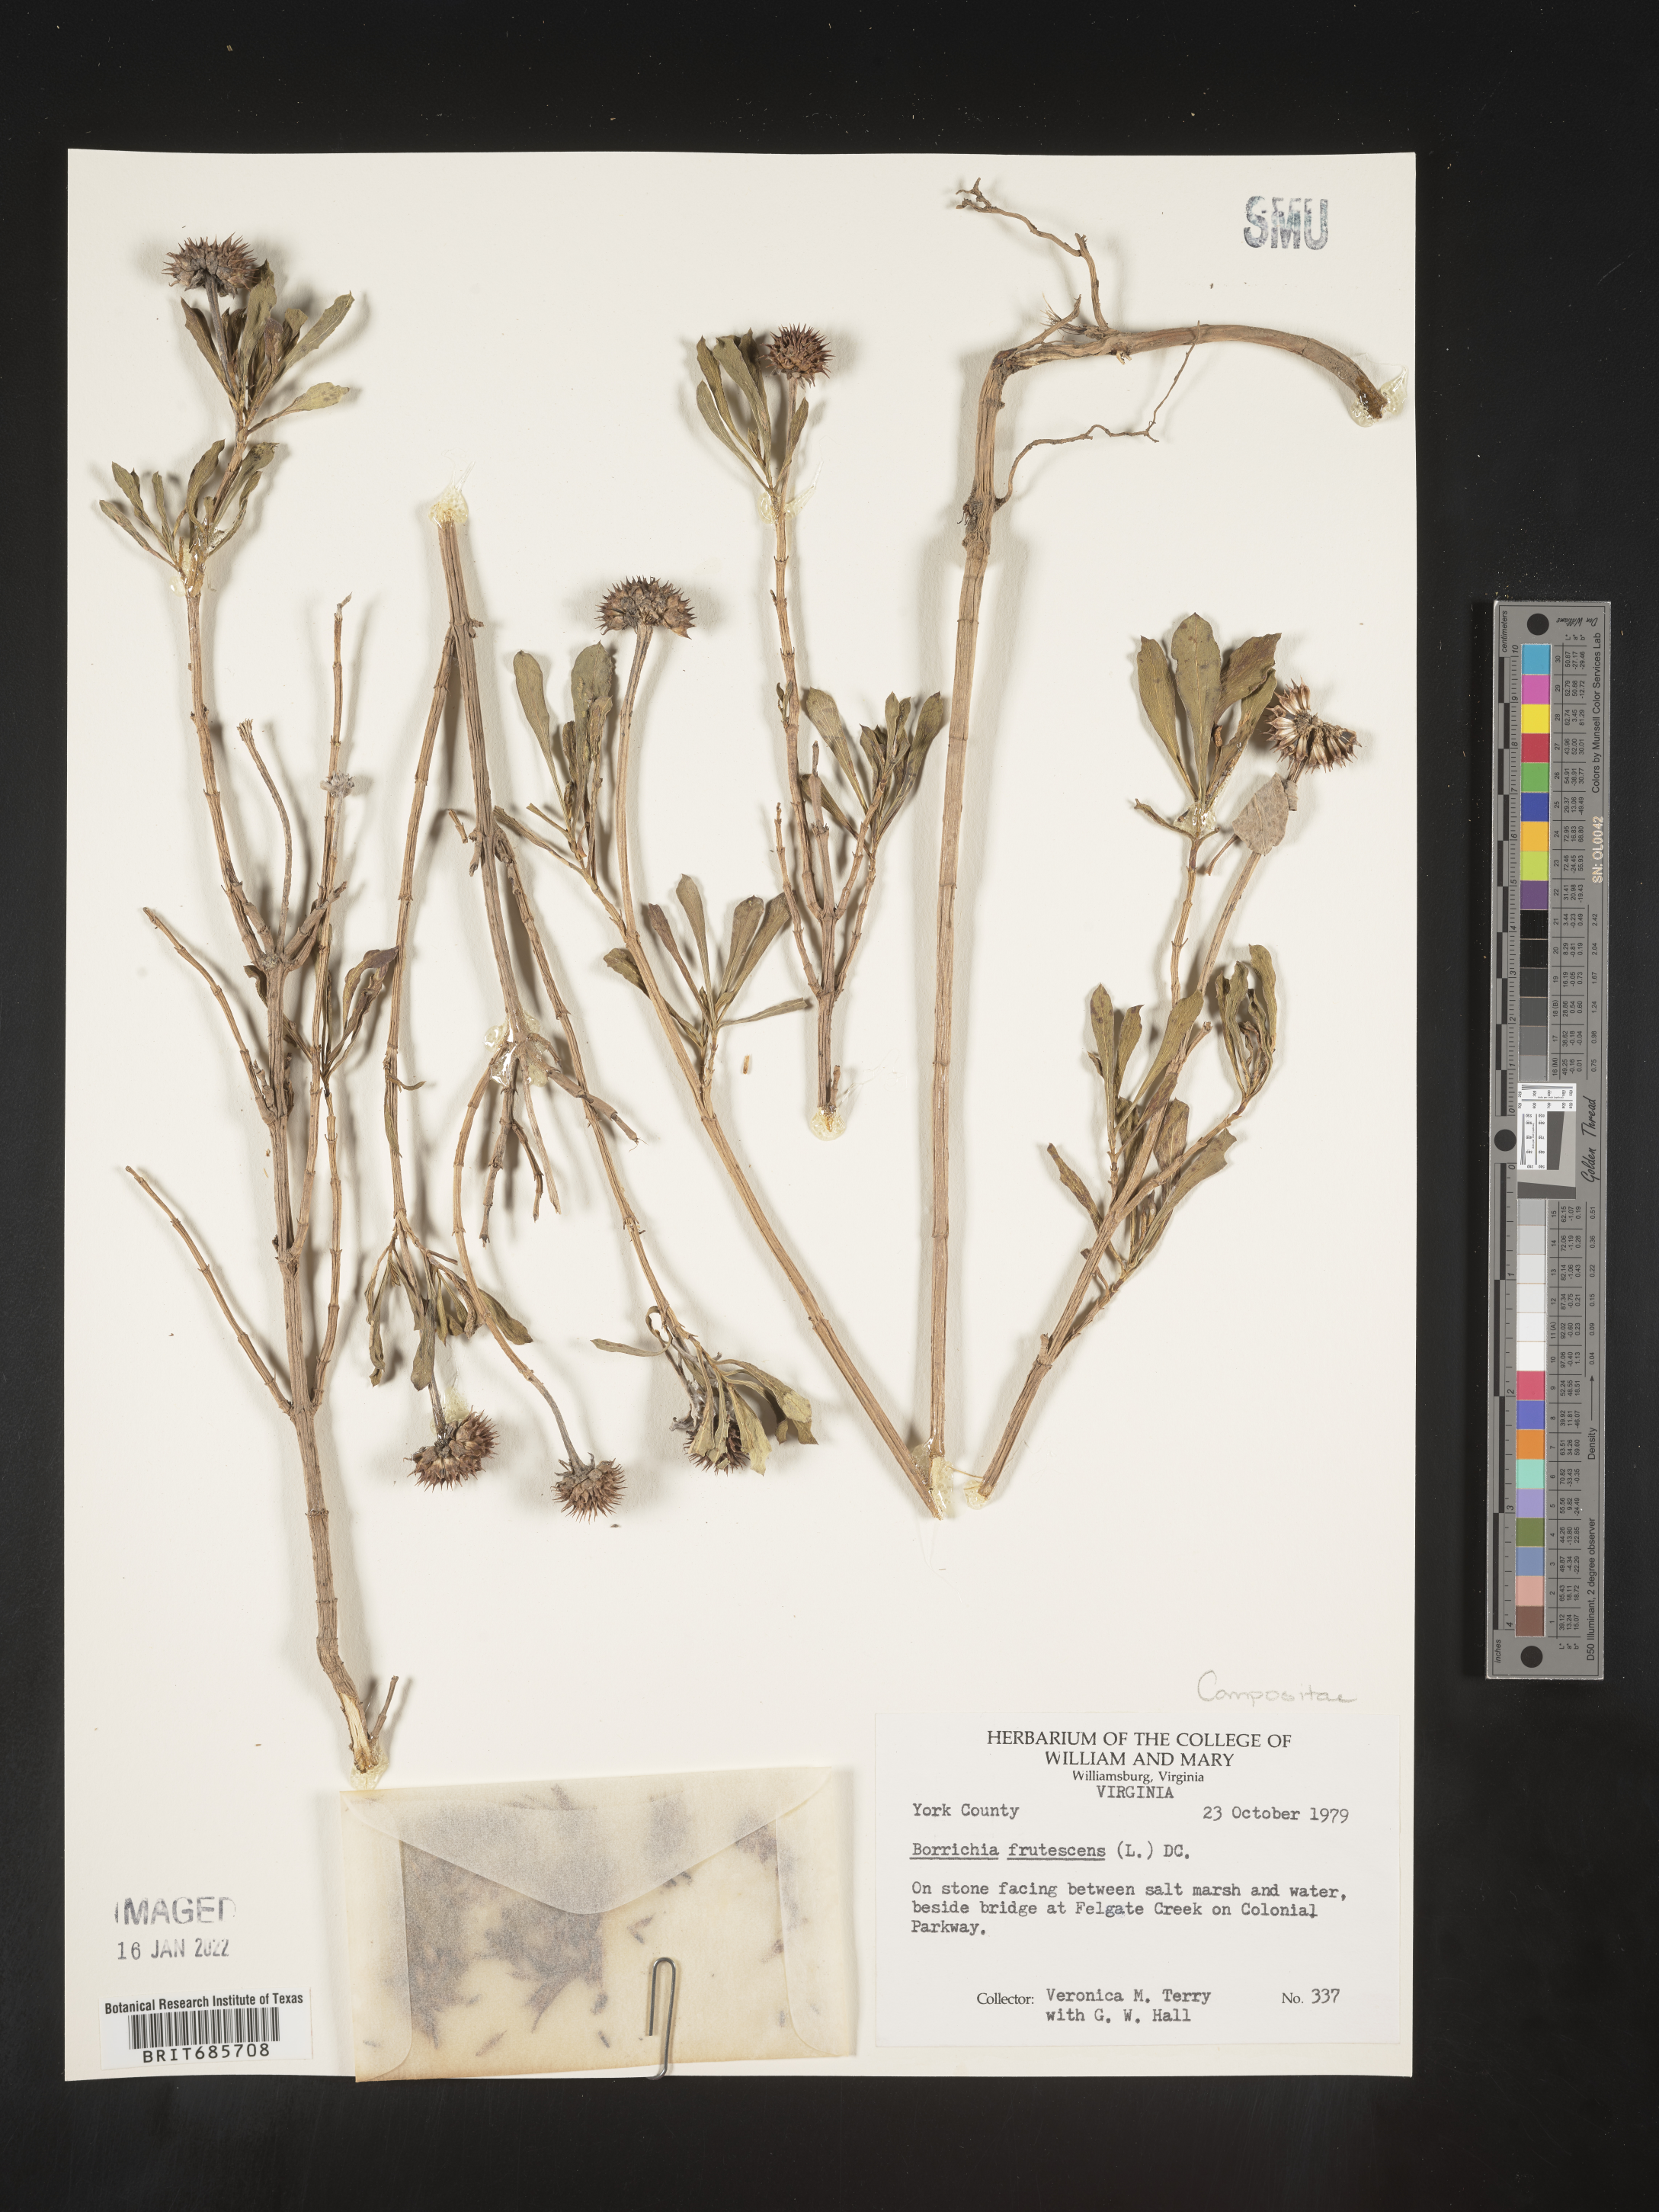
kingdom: Plantae
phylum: Tracheophyta
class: Magnoliopsida
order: Asterales
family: Asteraceae
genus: Borrichia
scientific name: Borrichia frutescens
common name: Sea oxeye
